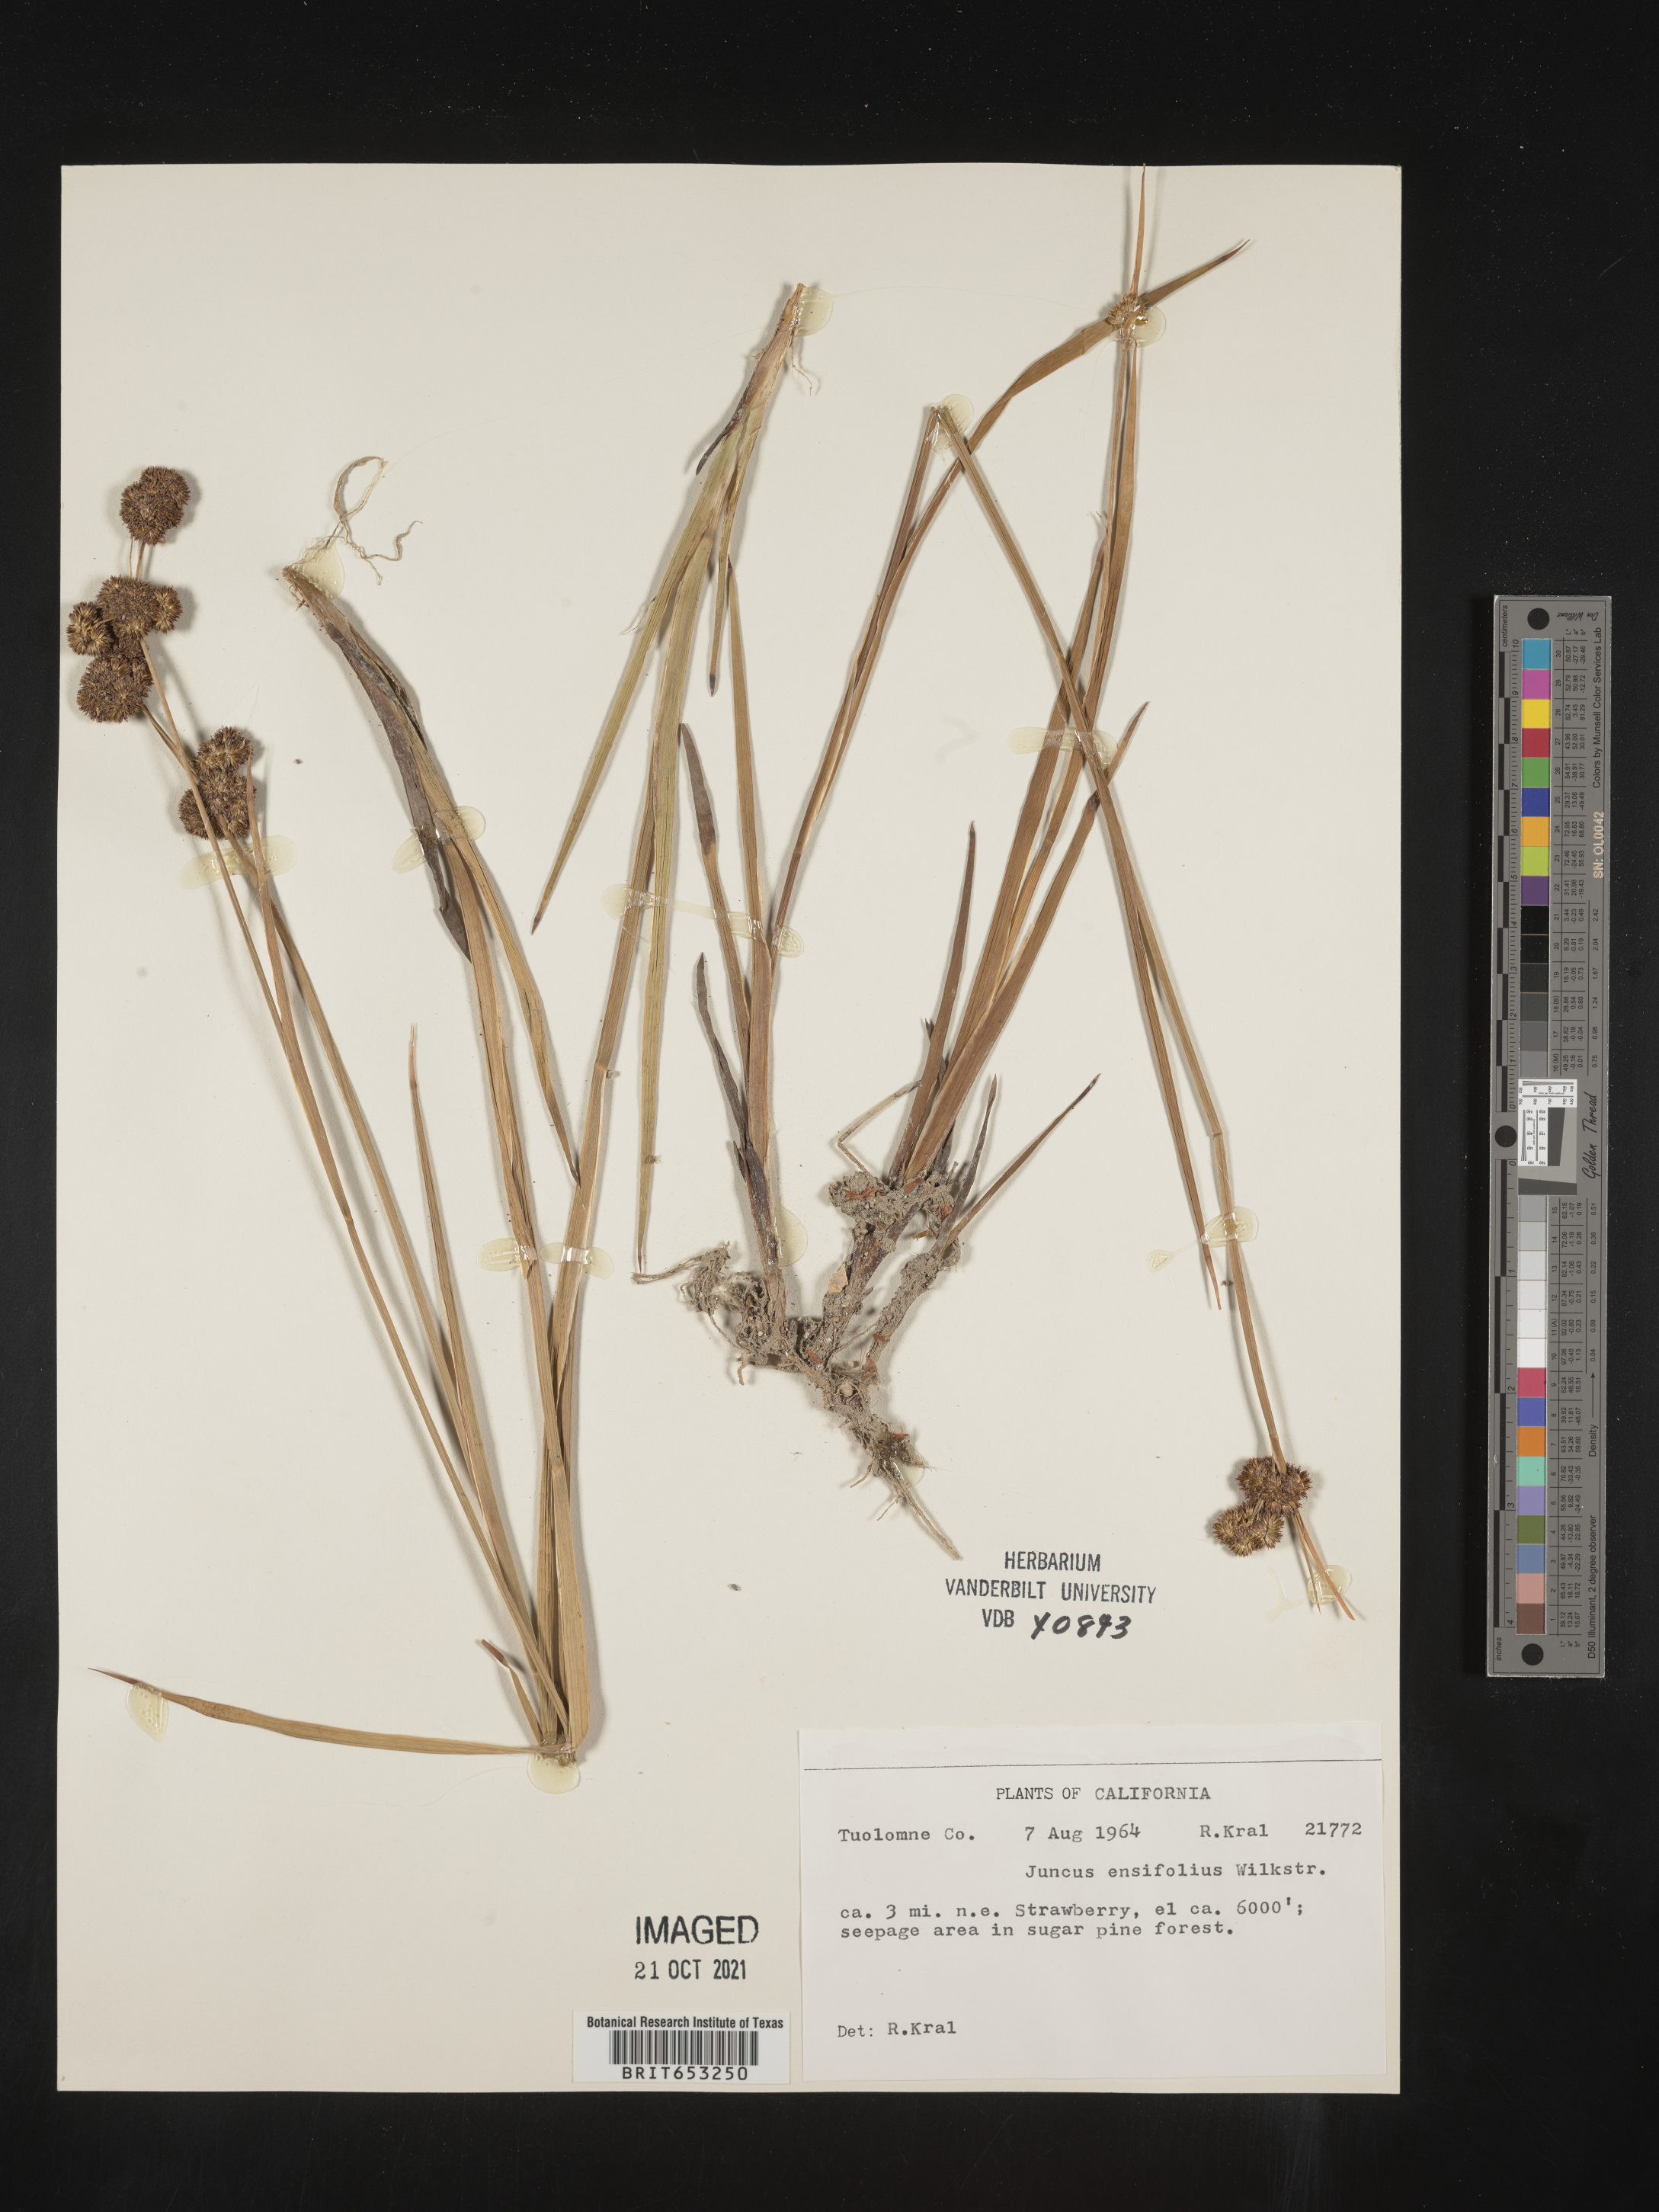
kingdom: Plantae
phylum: Tracheophyta
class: Liliopsida
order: Poales
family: Juncaceae
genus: Juncus
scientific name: Juncus ensifolius
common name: Sword-leaved rush
